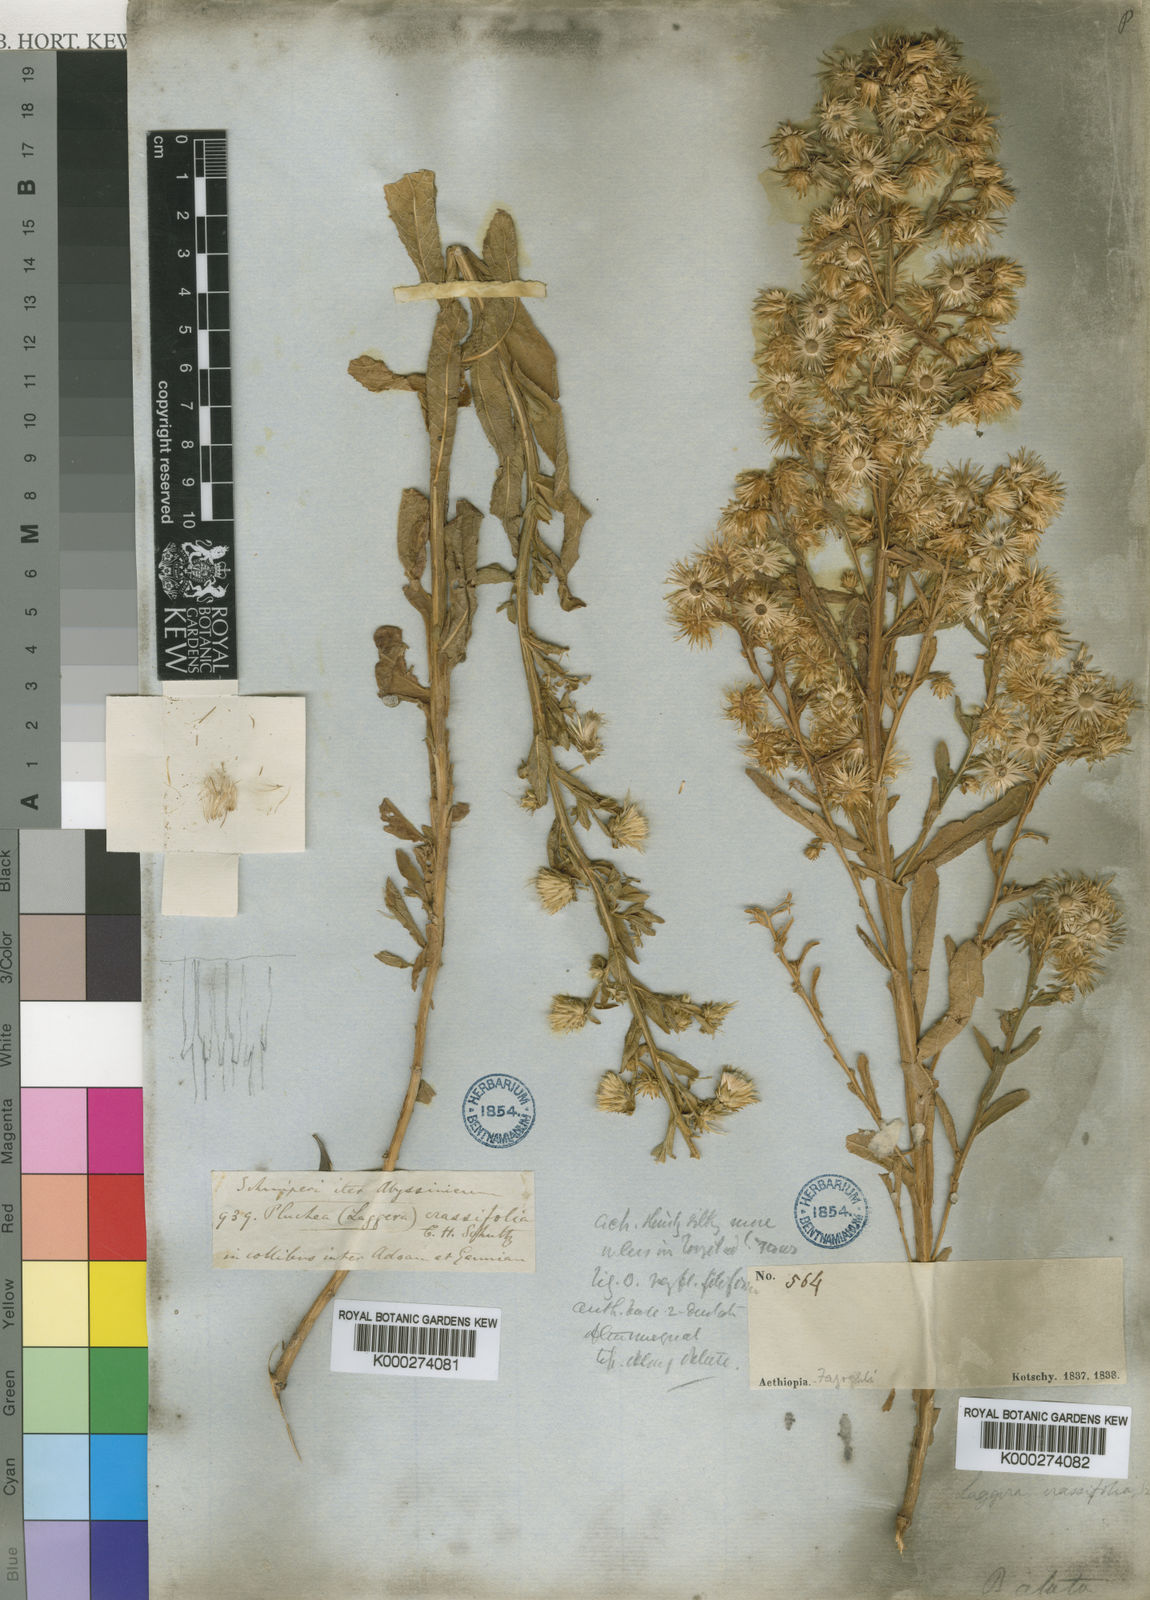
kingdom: Plantae
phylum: Tracheophyta
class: Magnoliopsida
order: Asterales
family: Asteraceae
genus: Laggera
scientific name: Laggera
